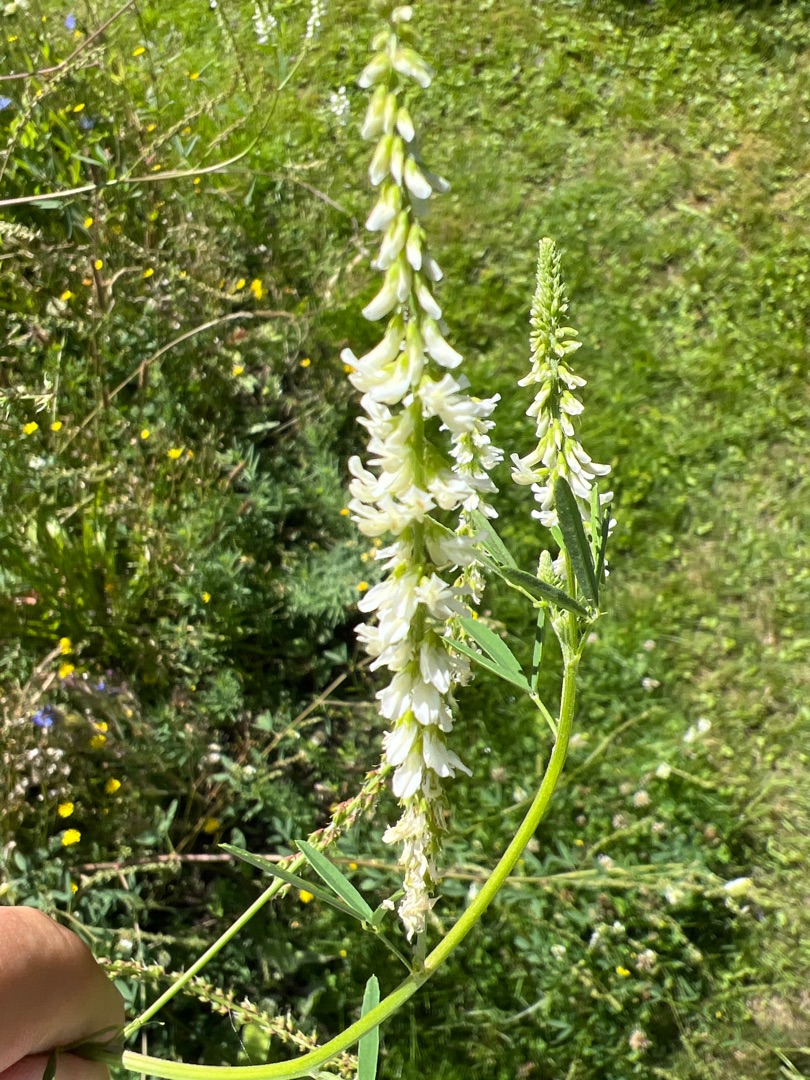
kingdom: Plantae
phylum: Tracheophyta
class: Magnoliopsida
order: Fabales
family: Fabaceae
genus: Melilotus
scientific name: Melilotus albus
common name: Hvid stenkløver
